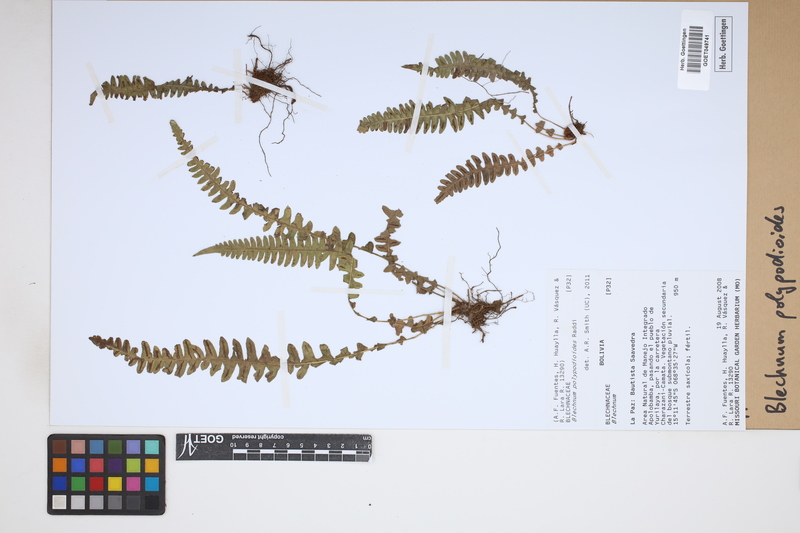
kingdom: Plantae
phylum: Tracheophyta
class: Polypodiopsida
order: Polypodiales
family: Blechnaceae
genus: Blechnum
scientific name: Blechnum polypodioides
